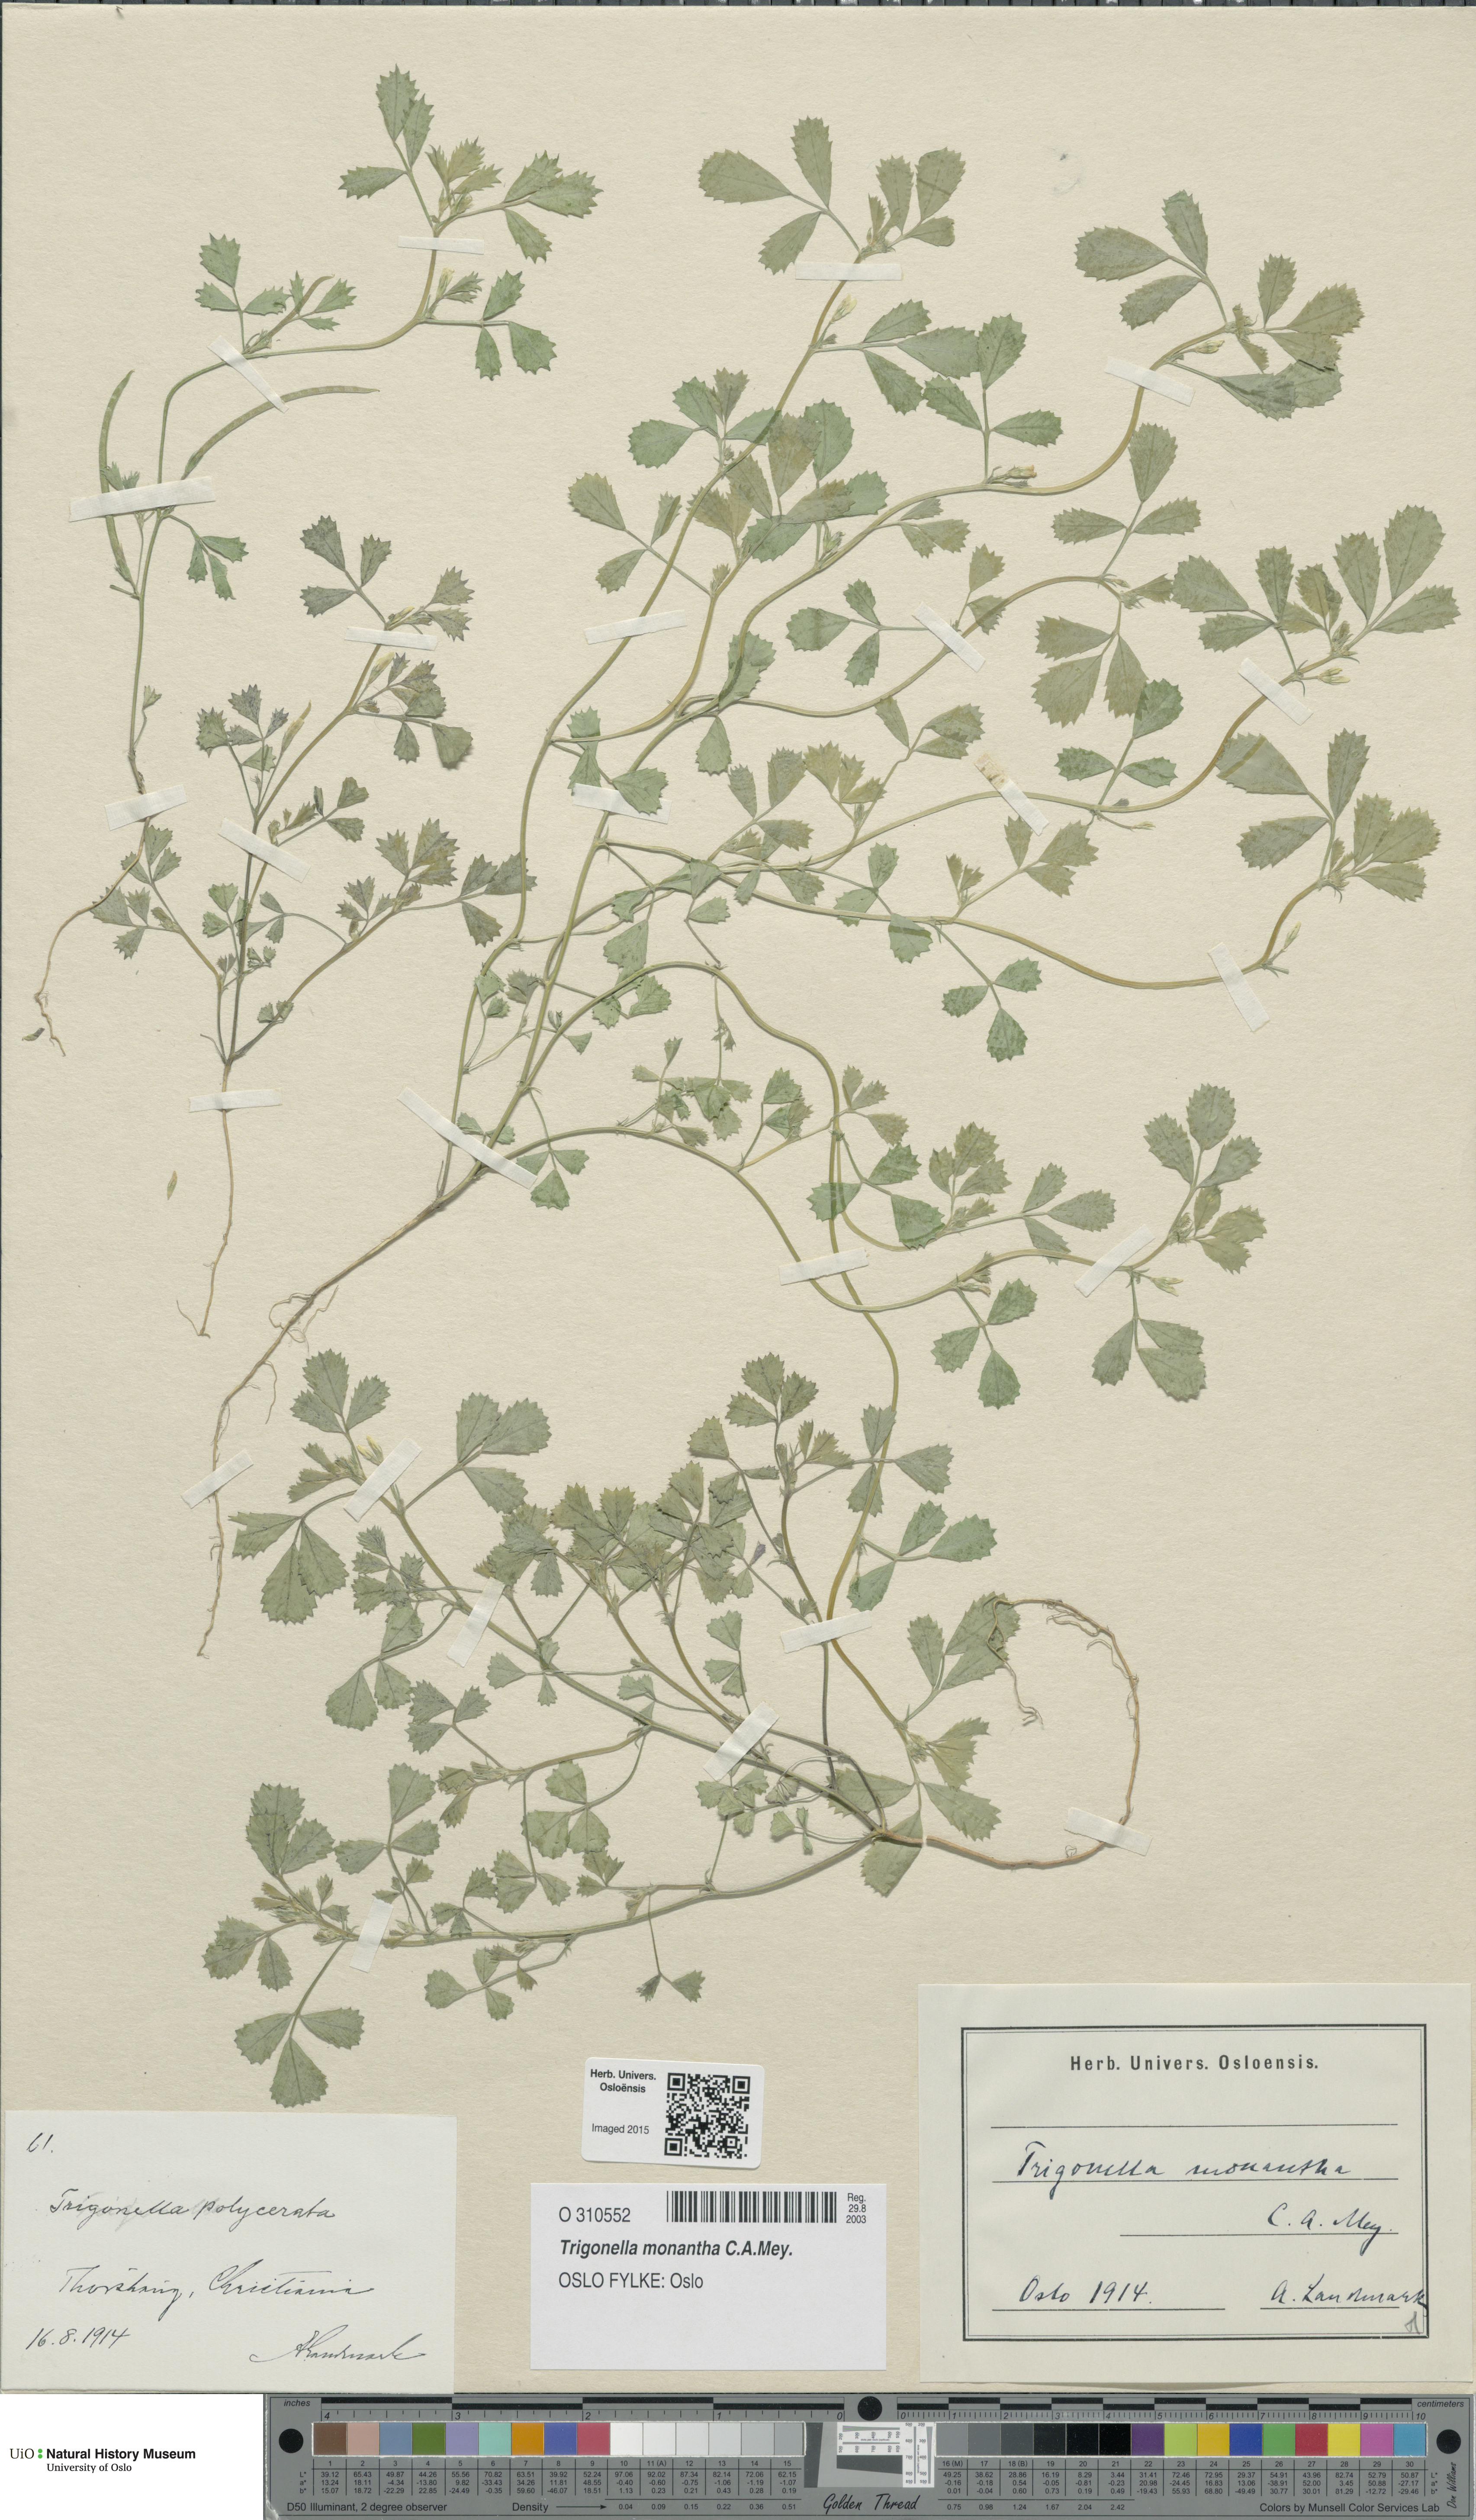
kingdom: Plantae
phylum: Tracheophyta
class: Magnoliopsida
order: Fabales
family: Fabaceae
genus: Medicago
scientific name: Medicago monantha
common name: Medick
